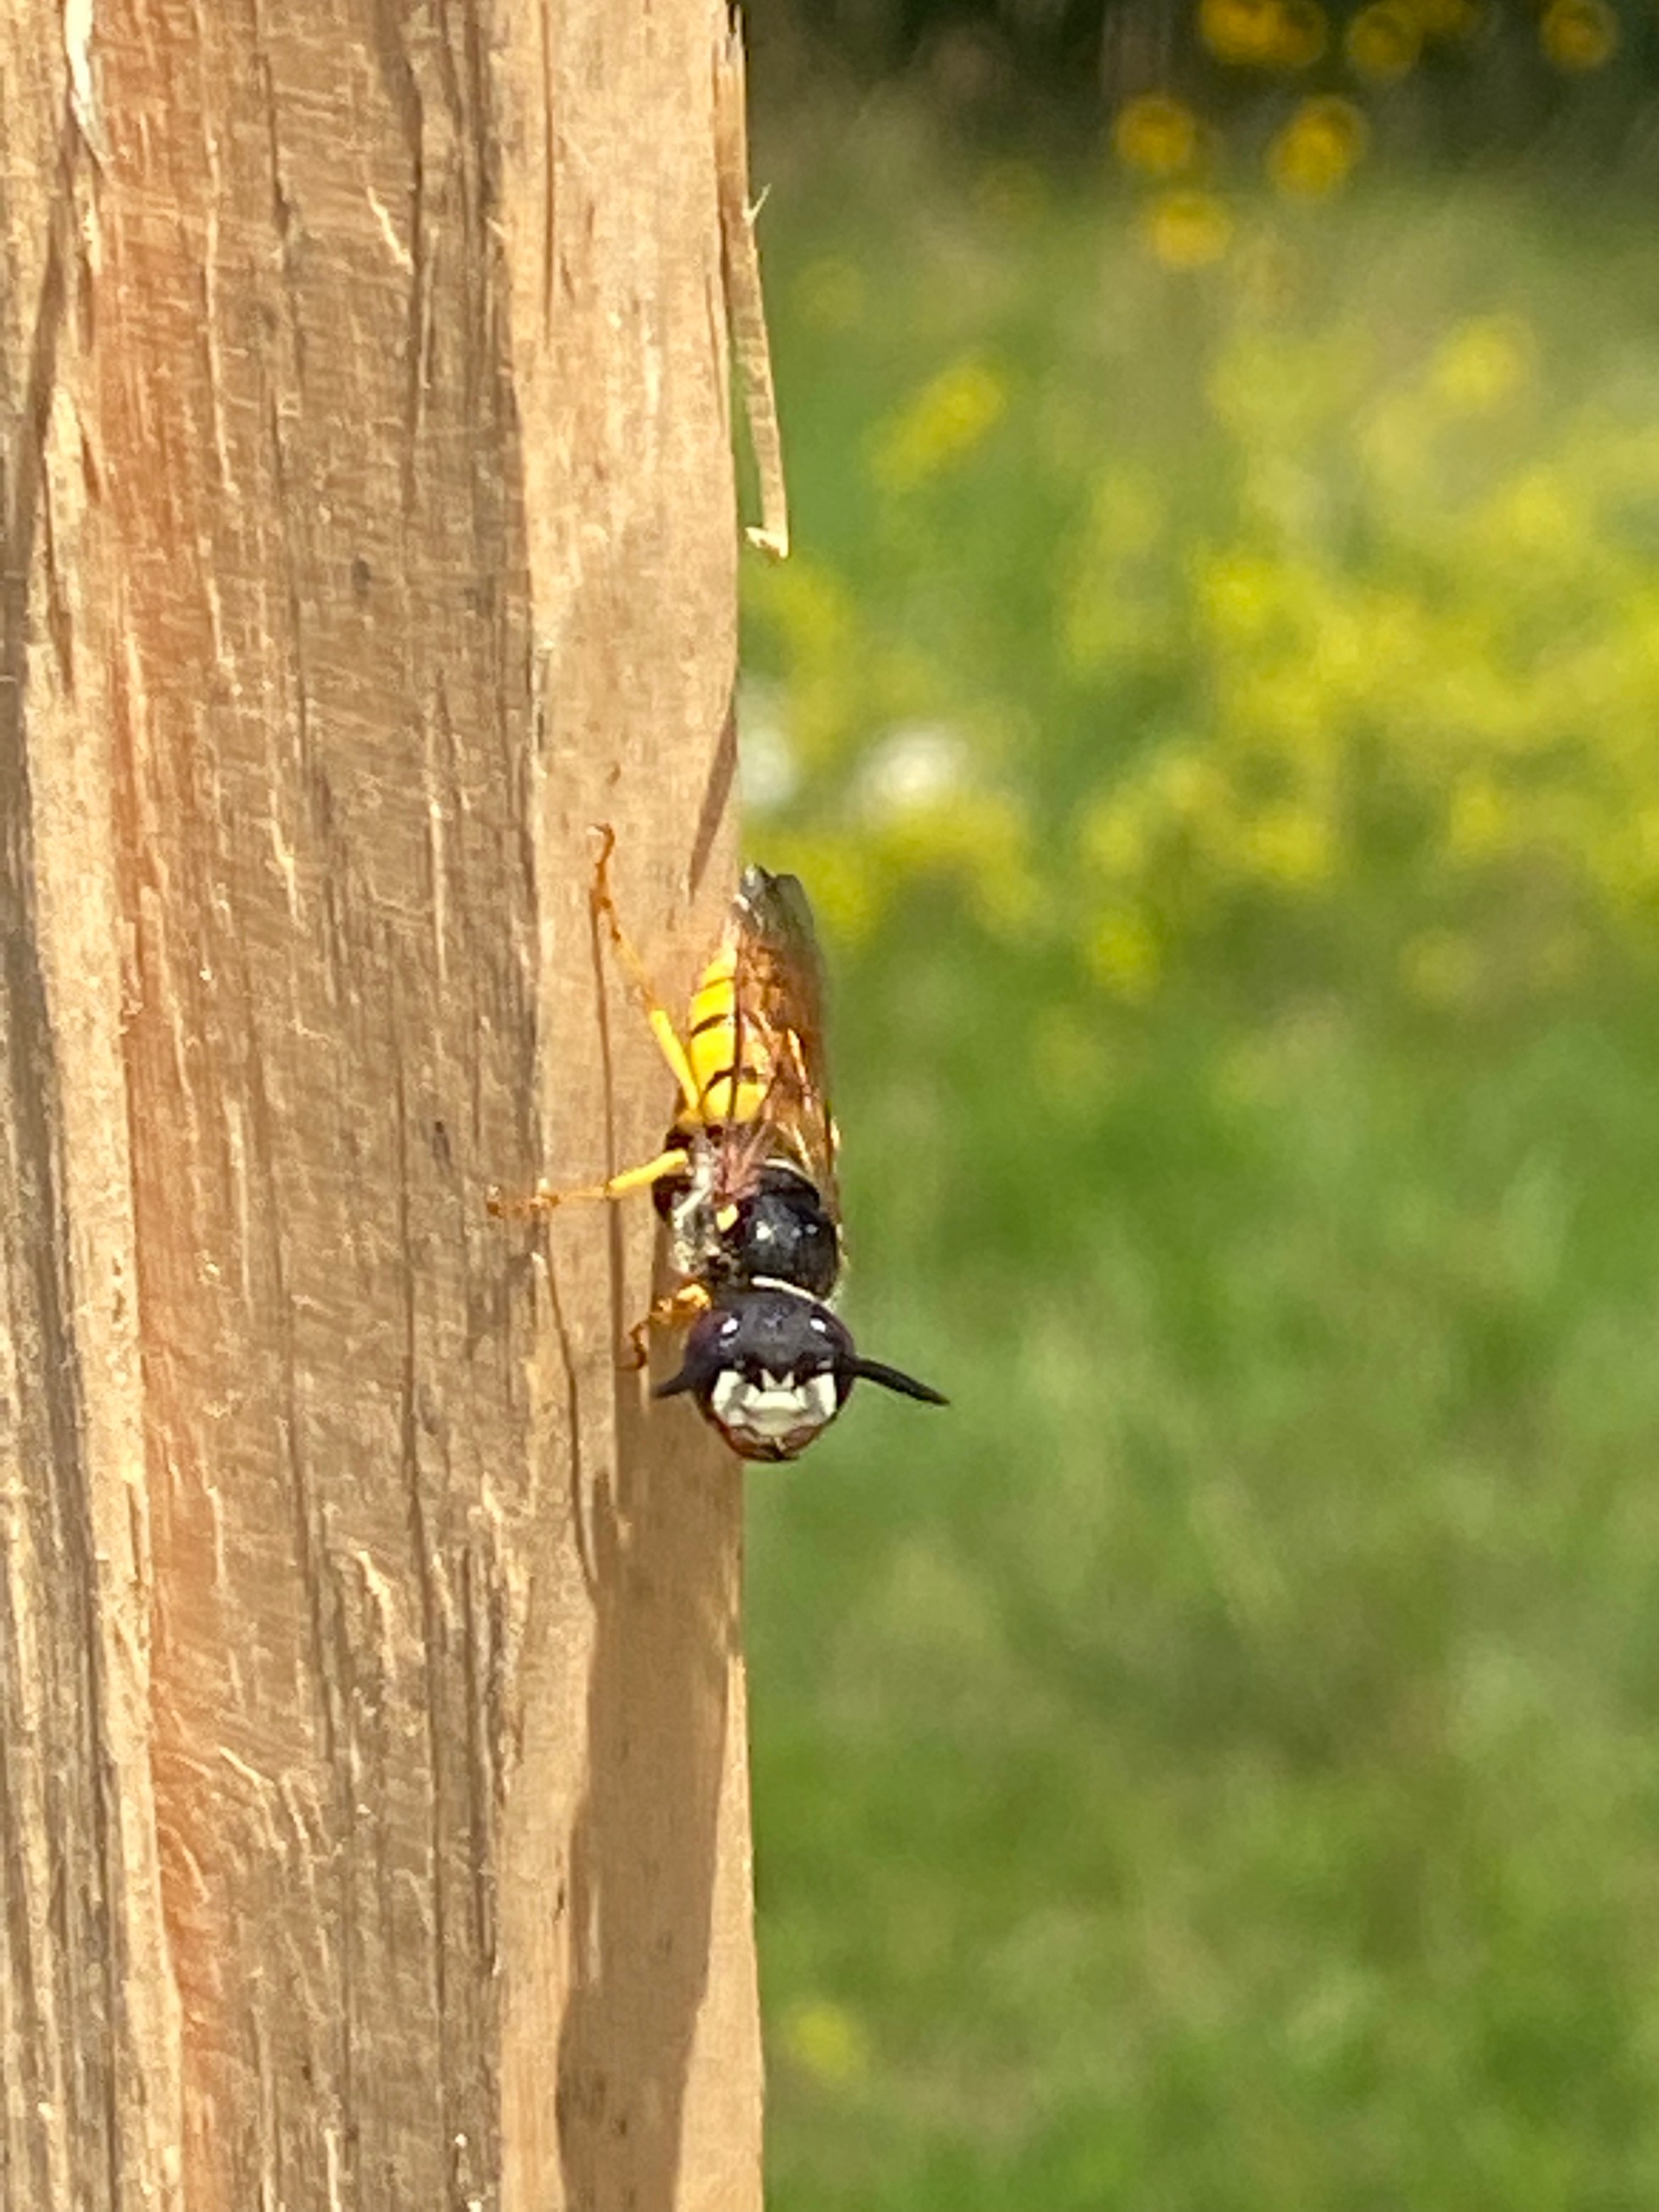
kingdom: Animalia
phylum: Arthropoda
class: Insecta
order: Hymenoptera
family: Crabronidae
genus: Philanthus
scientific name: Philanthus triangulum
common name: Biulv
